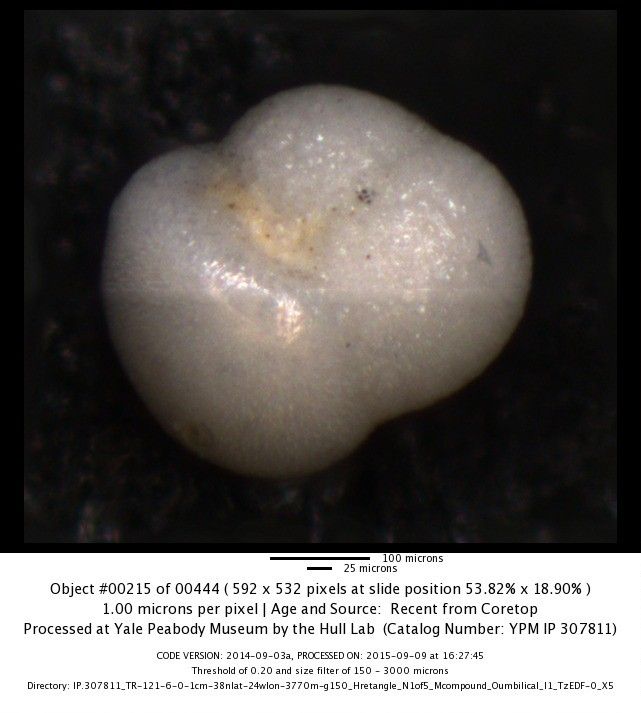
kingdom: Chromista
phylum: Foraminifera
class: Globothalamea
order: Rotaliida
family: Globorotaliidae
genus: Globoconella
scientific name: Globoconella inflata
